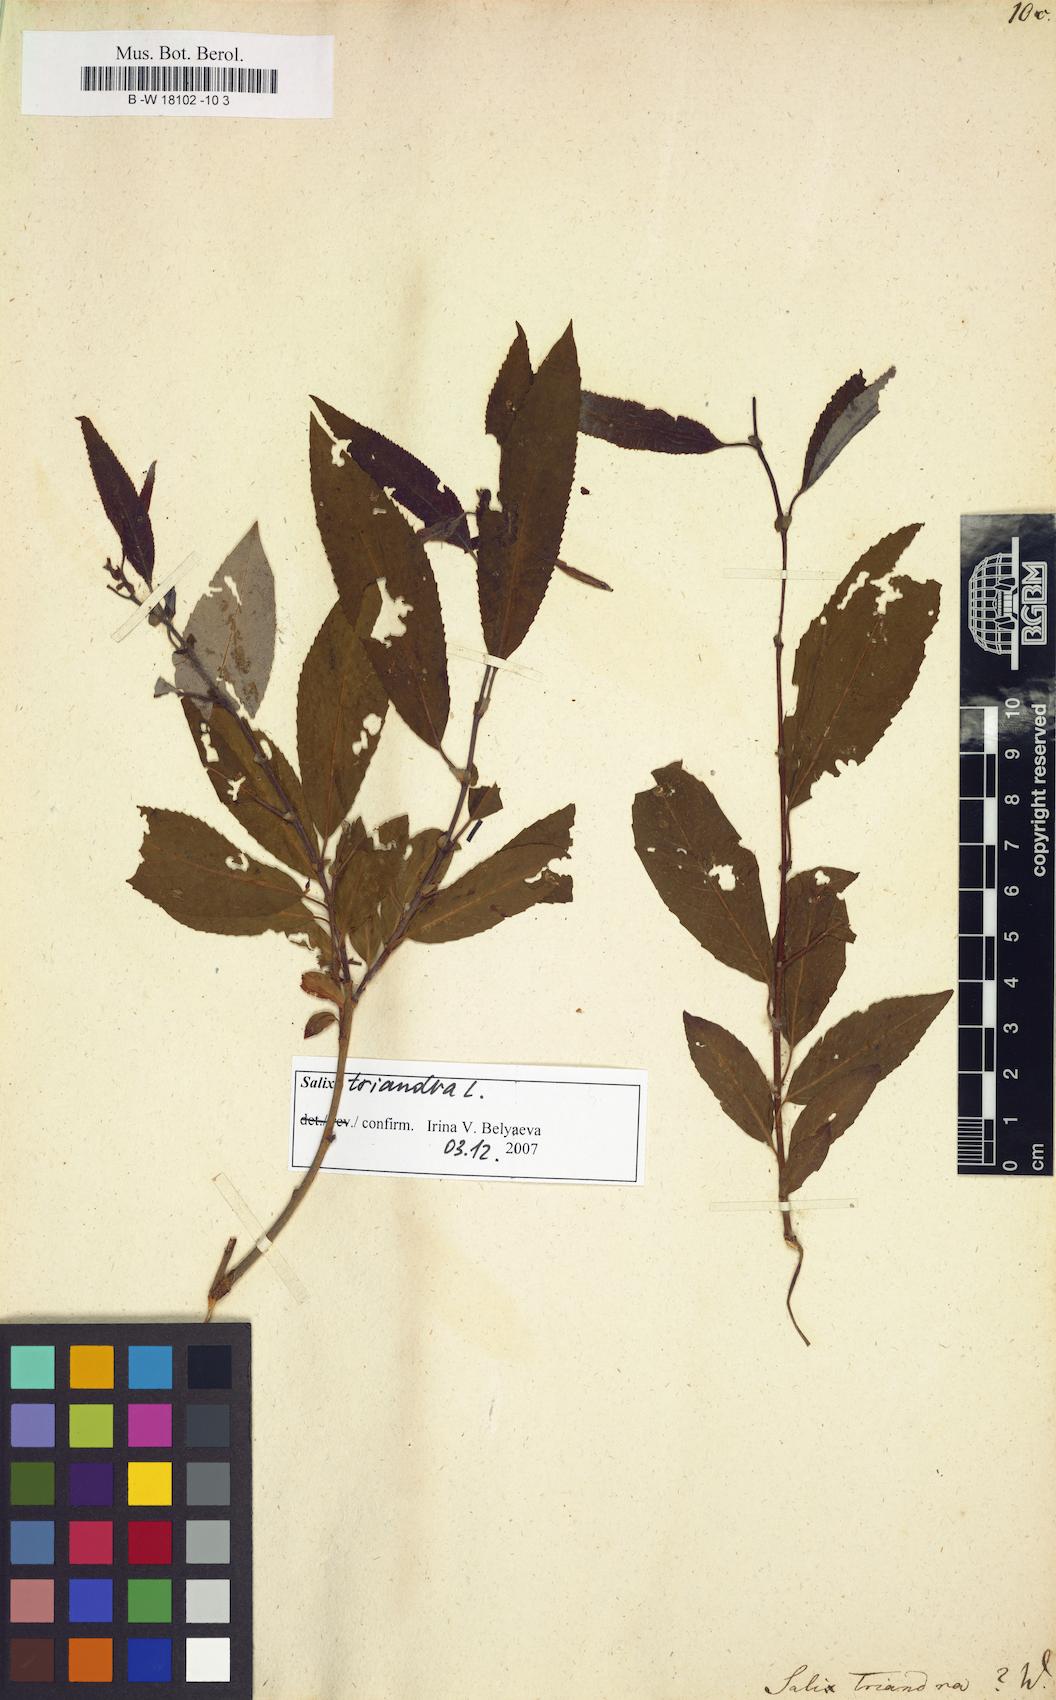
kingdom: Plantae
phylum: Tracheophyta
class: Magnoliopsida
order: Malpighiales
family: Salicaceae
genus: Salix
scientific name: Salix triandra
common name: Almond willow
